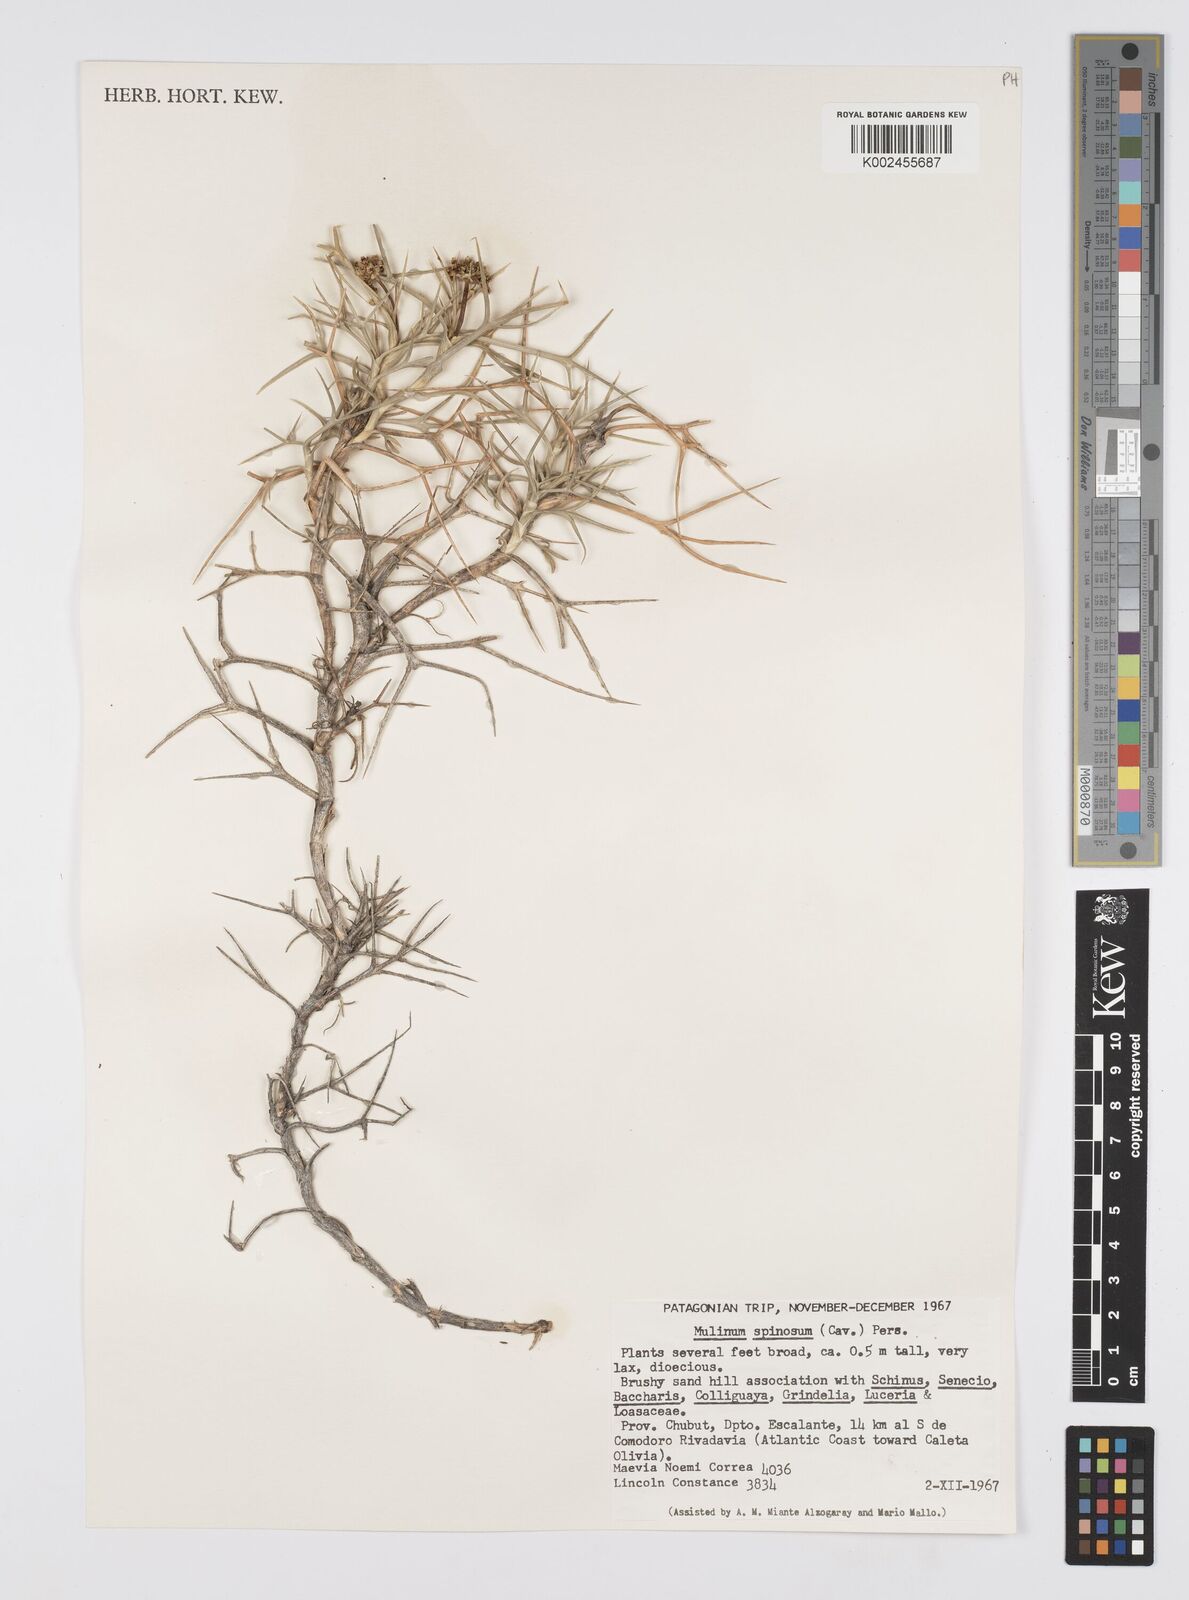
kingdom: Plantae
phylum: Tracheophyta
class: Magnoliopsida
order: Apiales
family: Apiaceae
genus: Azorella
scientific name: Azorella prolifera
